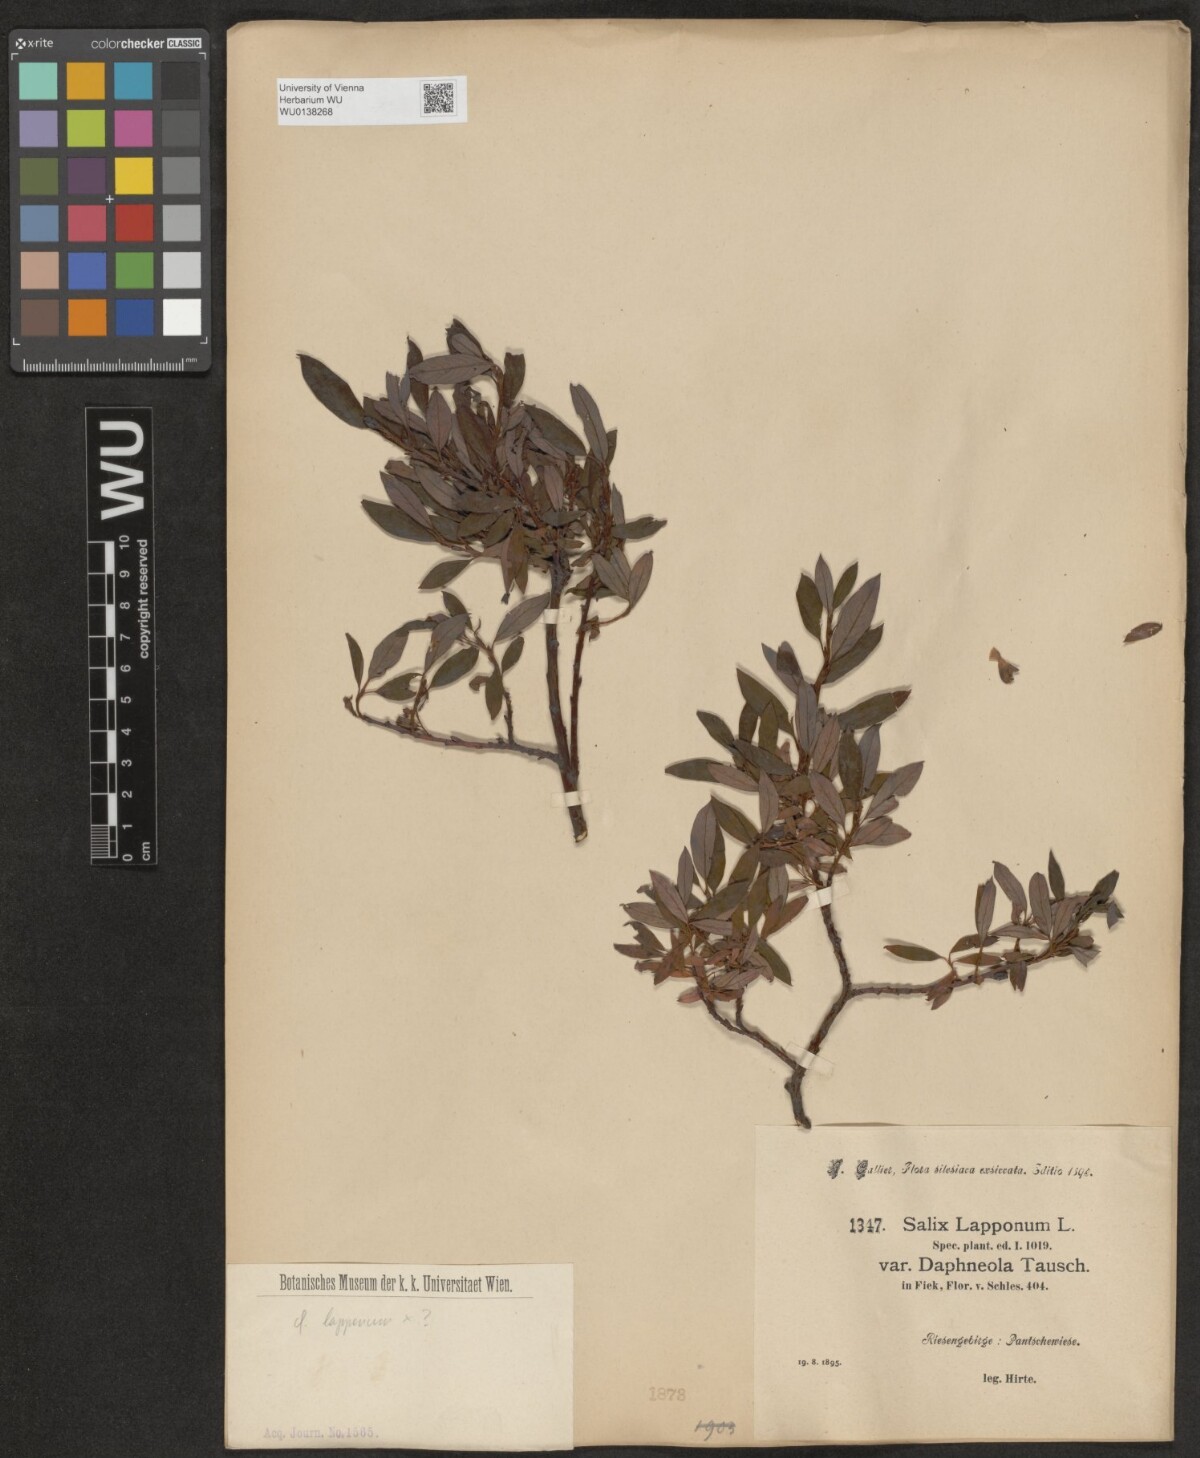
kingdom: Plantae
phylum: Tracheophyta
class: Magnoliopsida
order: Malpighiales
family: Salicaceae
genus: Salix
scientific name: Salix lapponum
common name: Downy willow
